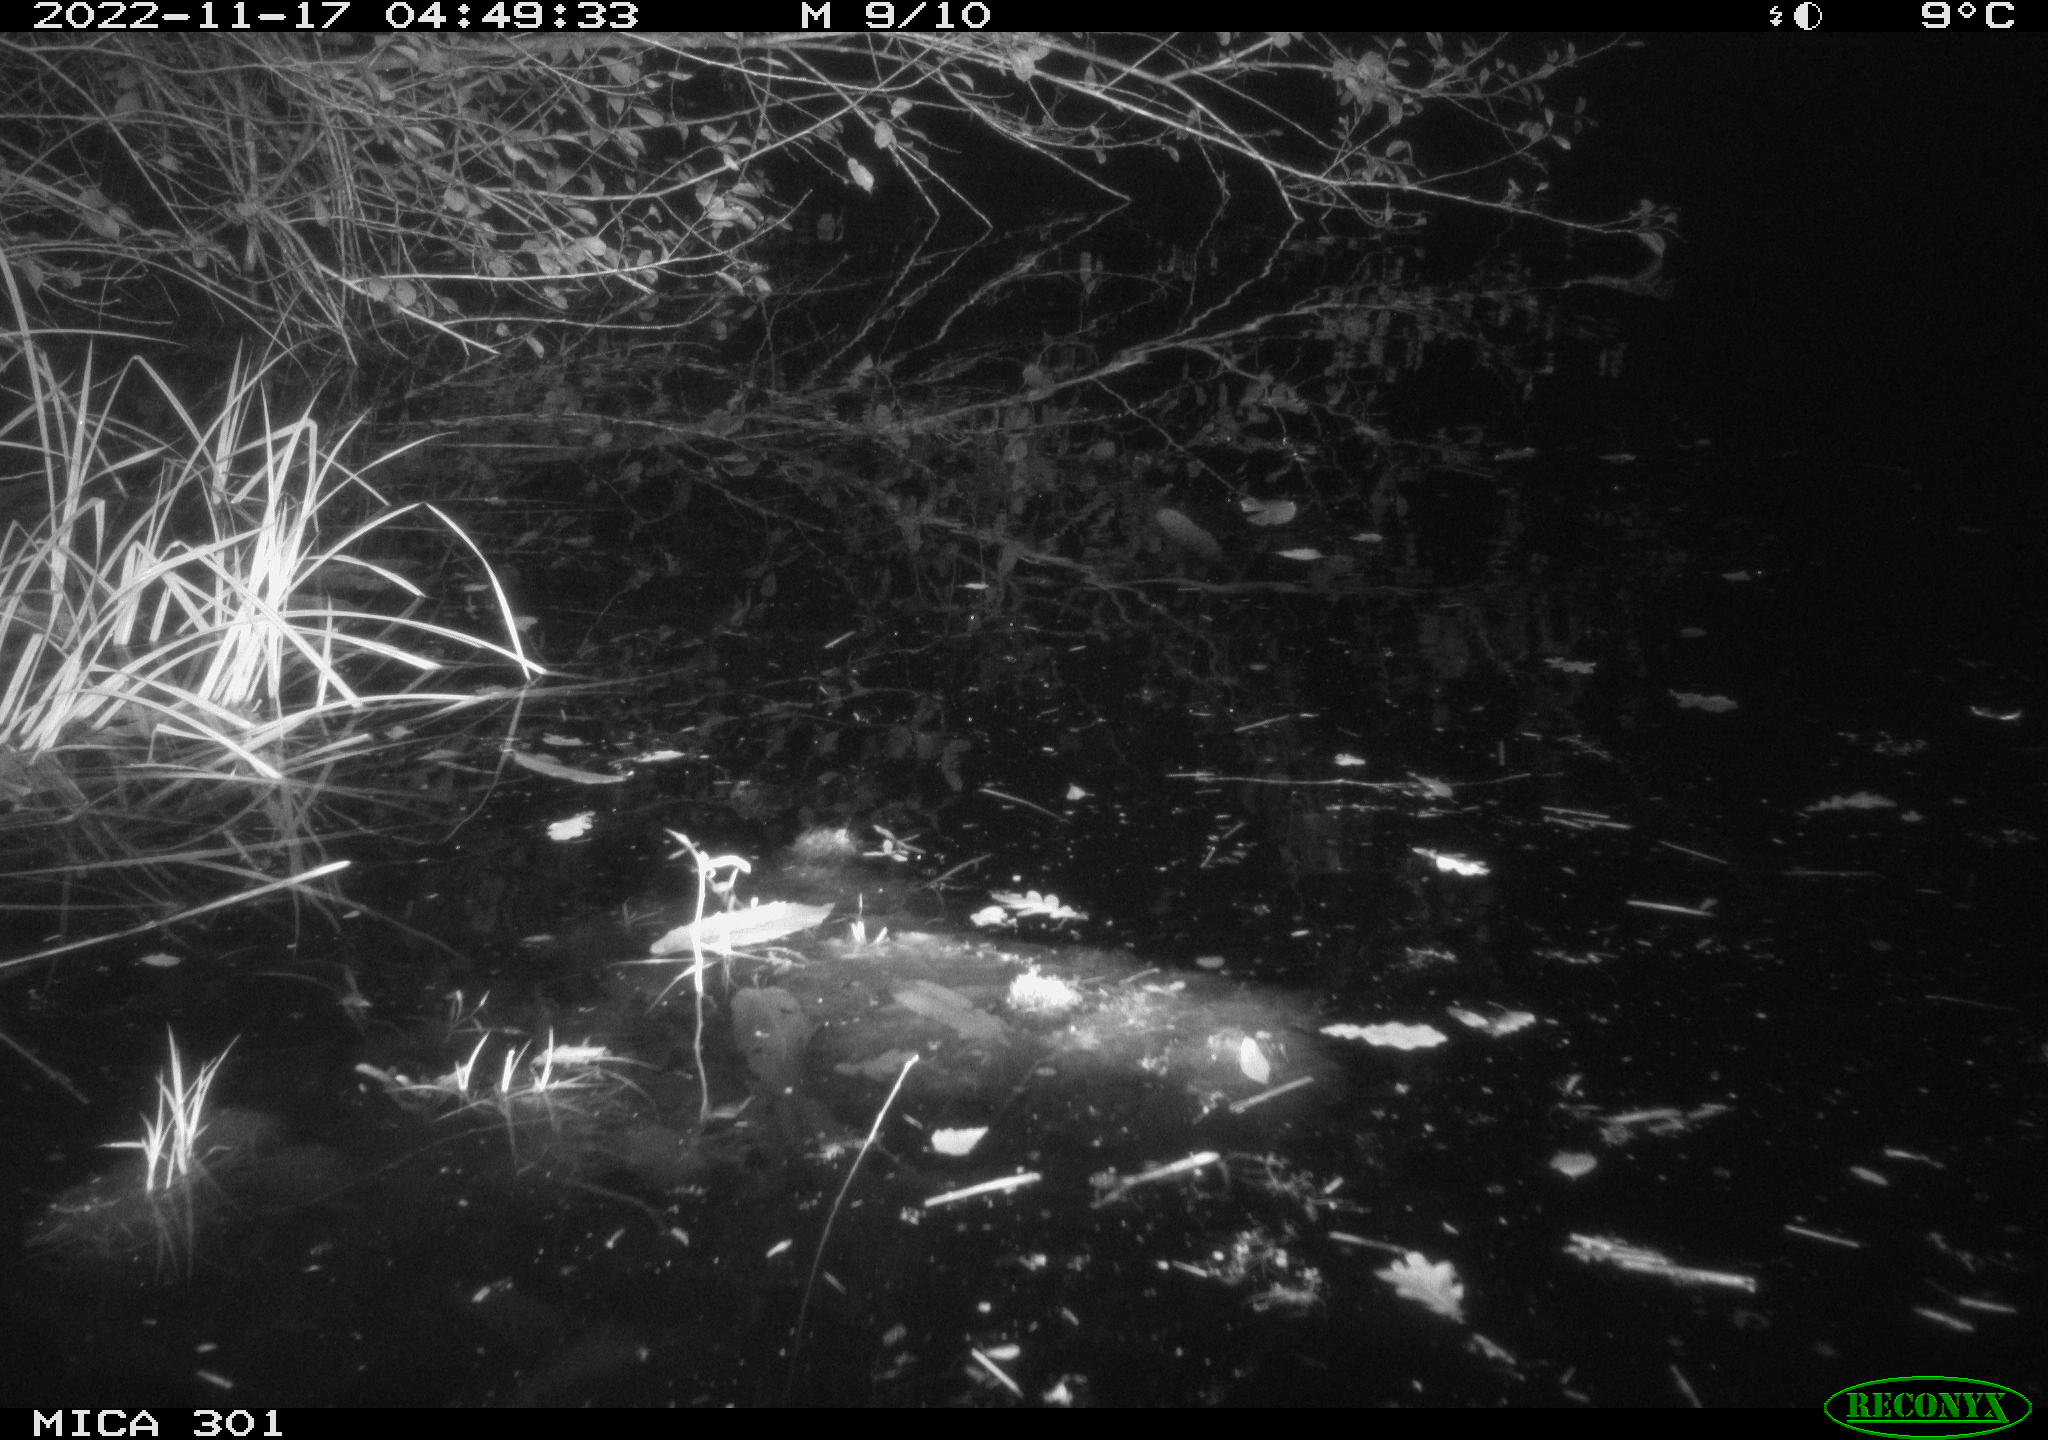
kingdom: Animalia
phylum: Chordata
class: Mammalia
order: Rodentia
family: Castoridae
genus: Castor
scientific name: Castor fiber
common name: Eurasian beaver
